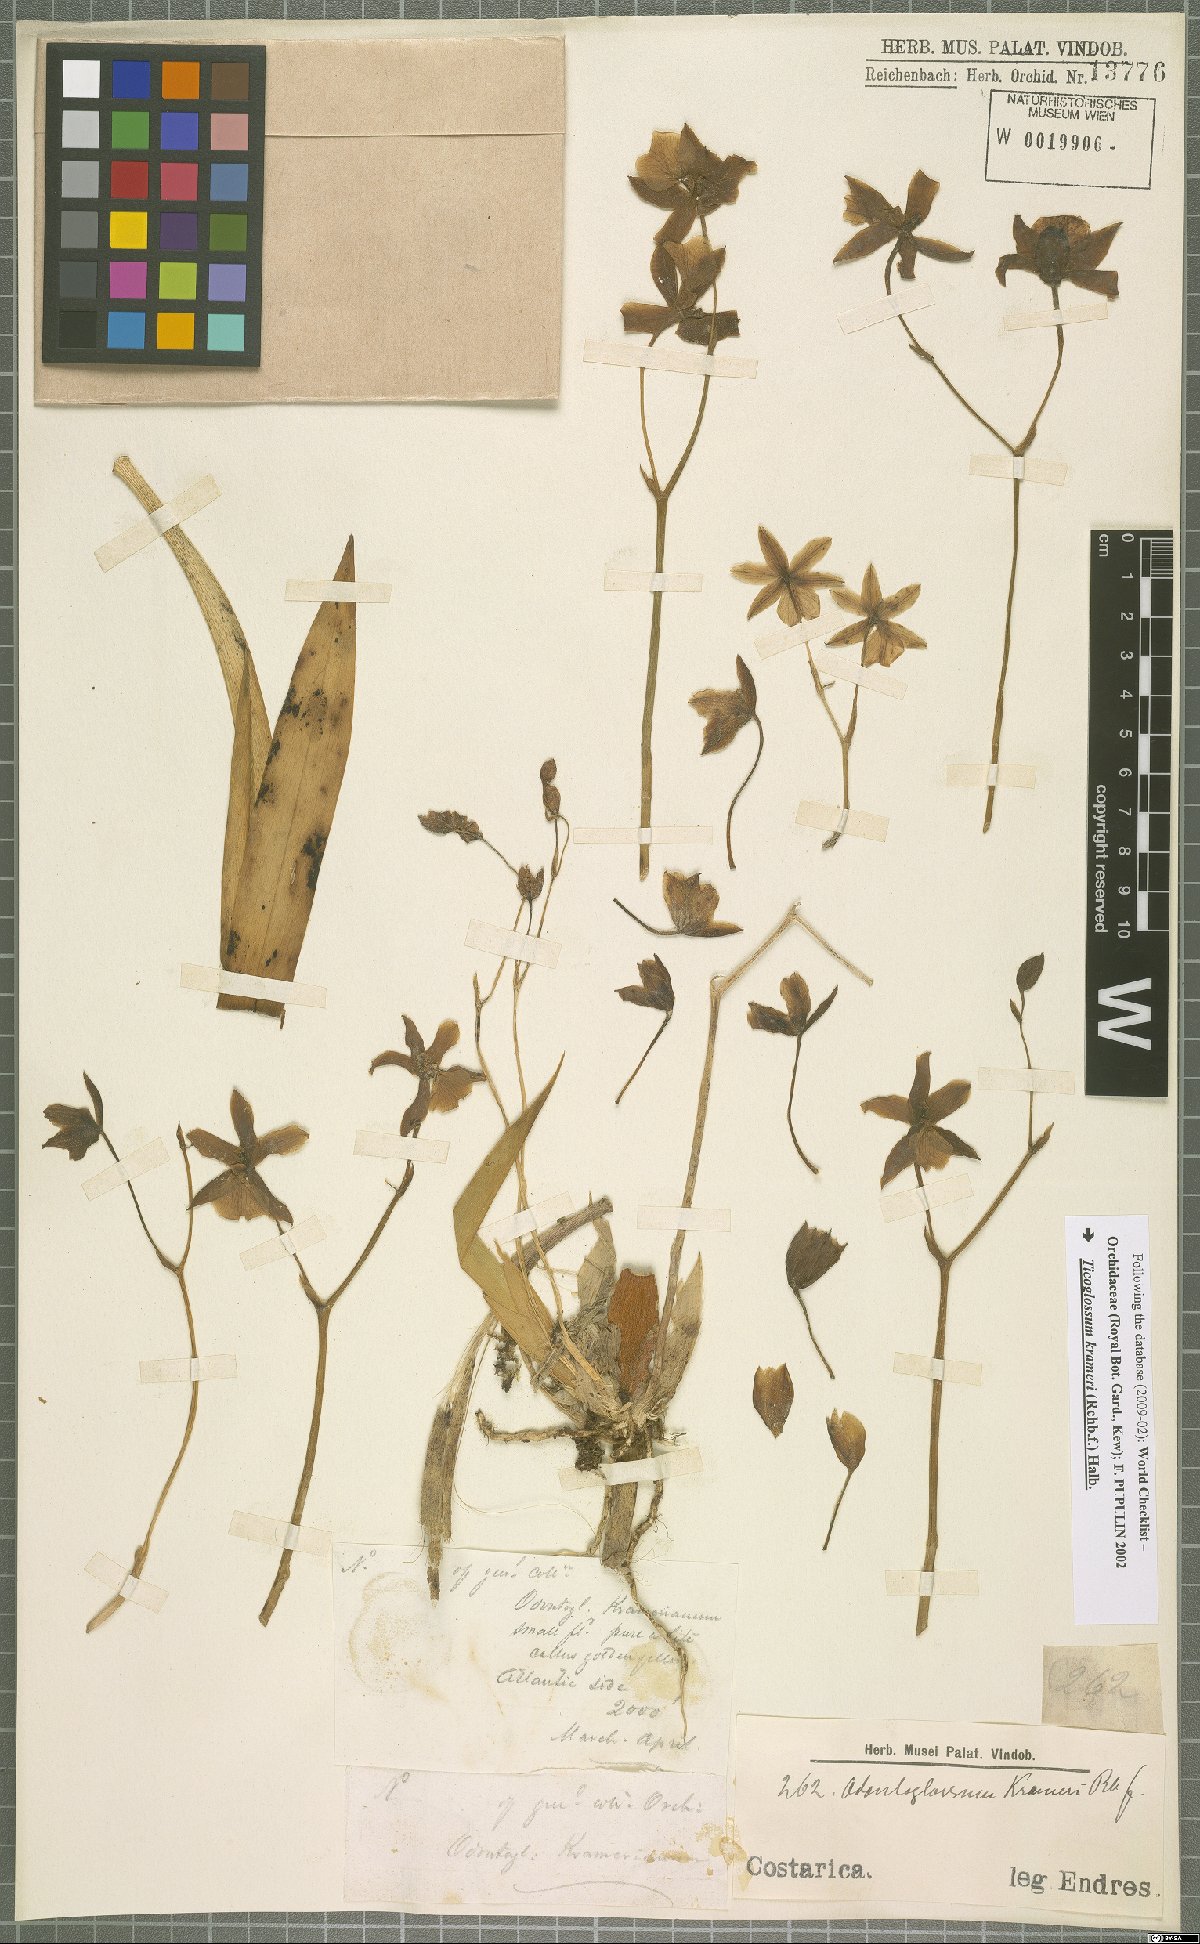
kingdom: Plantae
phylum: Tracheophyta
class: Liliopsida
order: Asparagales
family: Orchidaceae
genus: Rossioglossum
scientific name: Rossioglossum krameri
